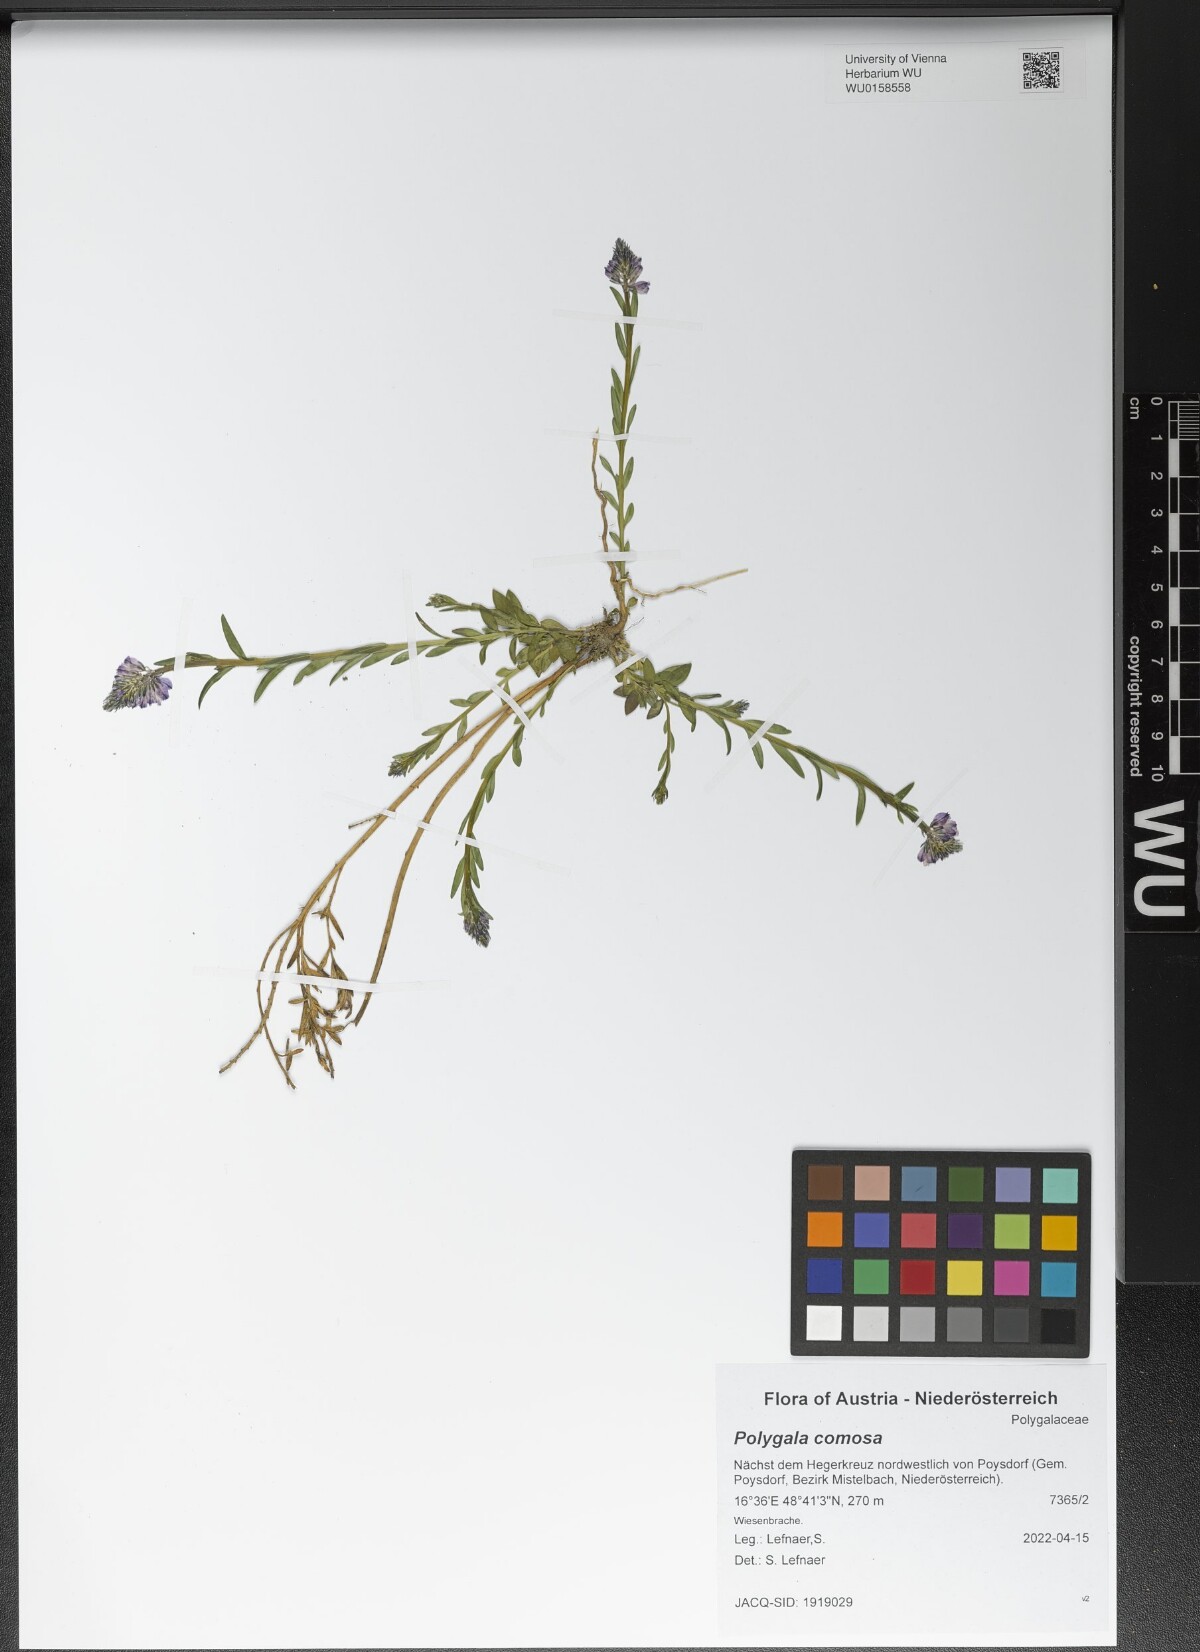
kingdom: Plantae
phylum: Tracheophyta
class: Magnoliopsida
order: Fabales
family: Polygalaceae
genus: Polygala
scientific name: Polygala comosa
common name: Tufted milkwort
